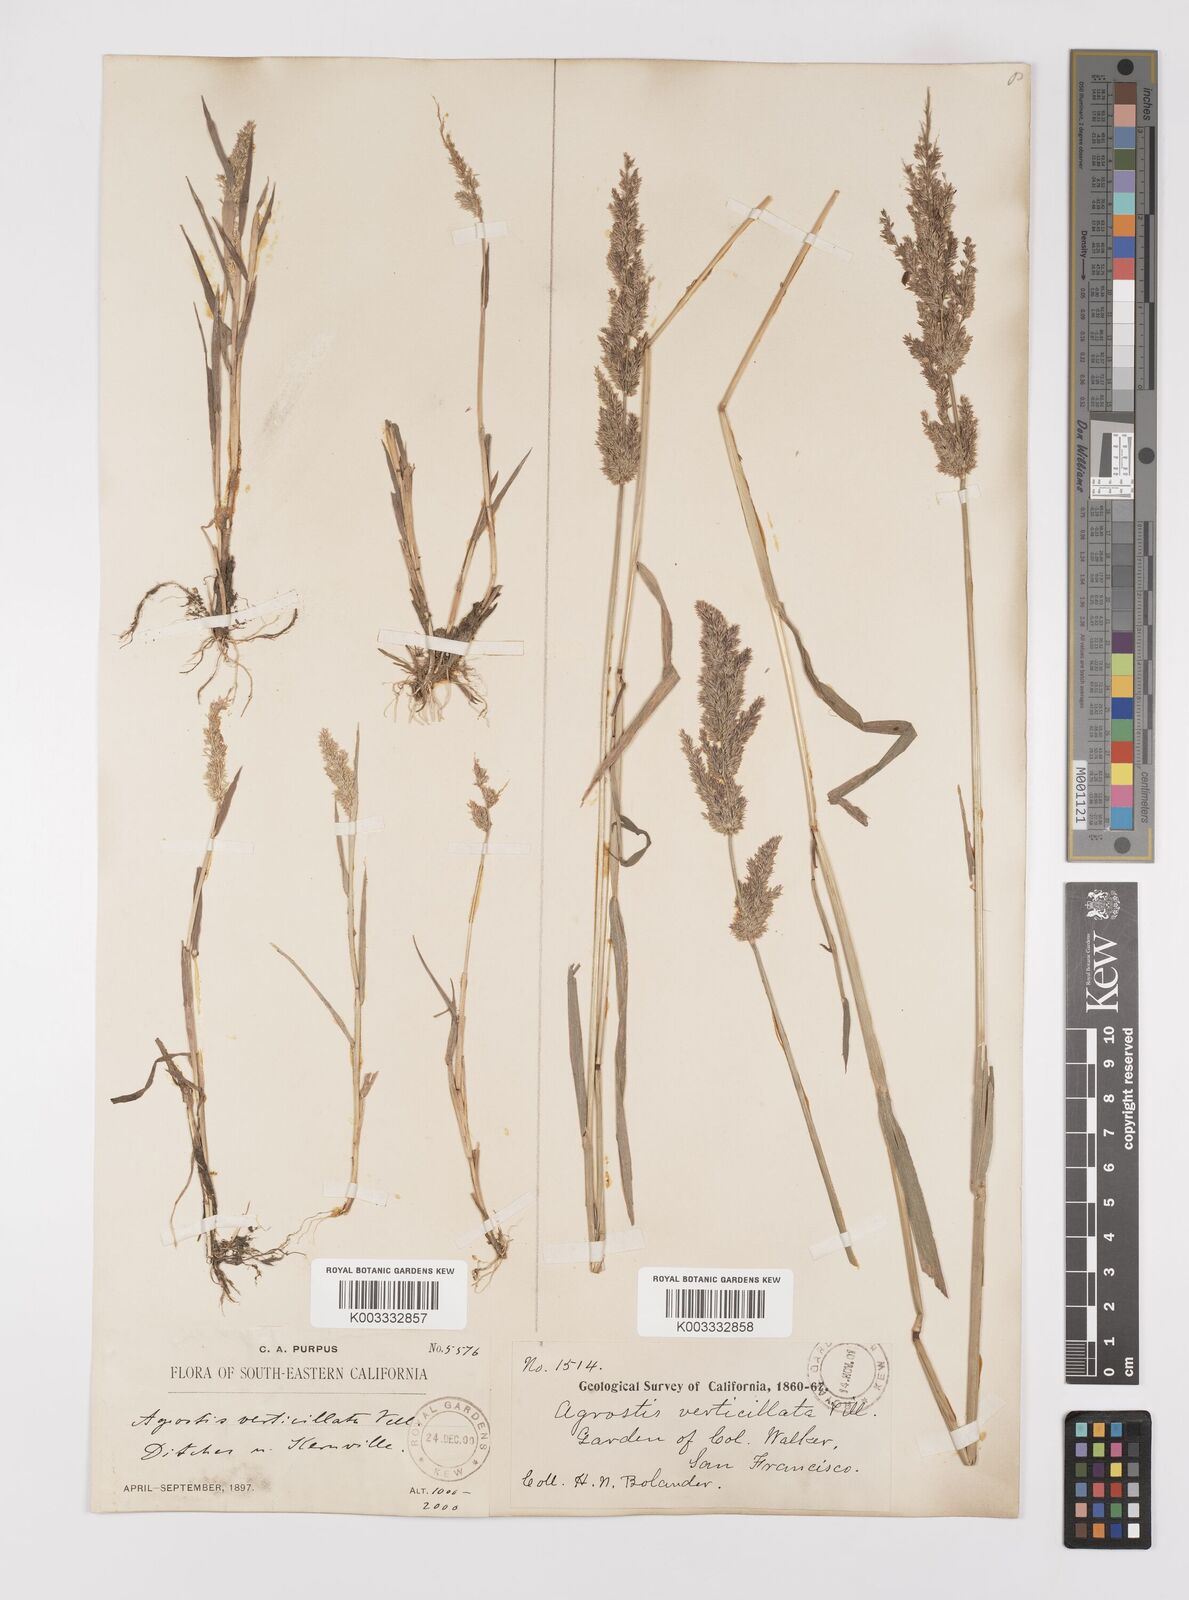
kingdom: Plantae
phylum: Tracheophyta
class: Liliopsida
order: Poales
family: Poaceae
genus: Polypogon
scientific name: Polypogon viridis
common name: Water bent
